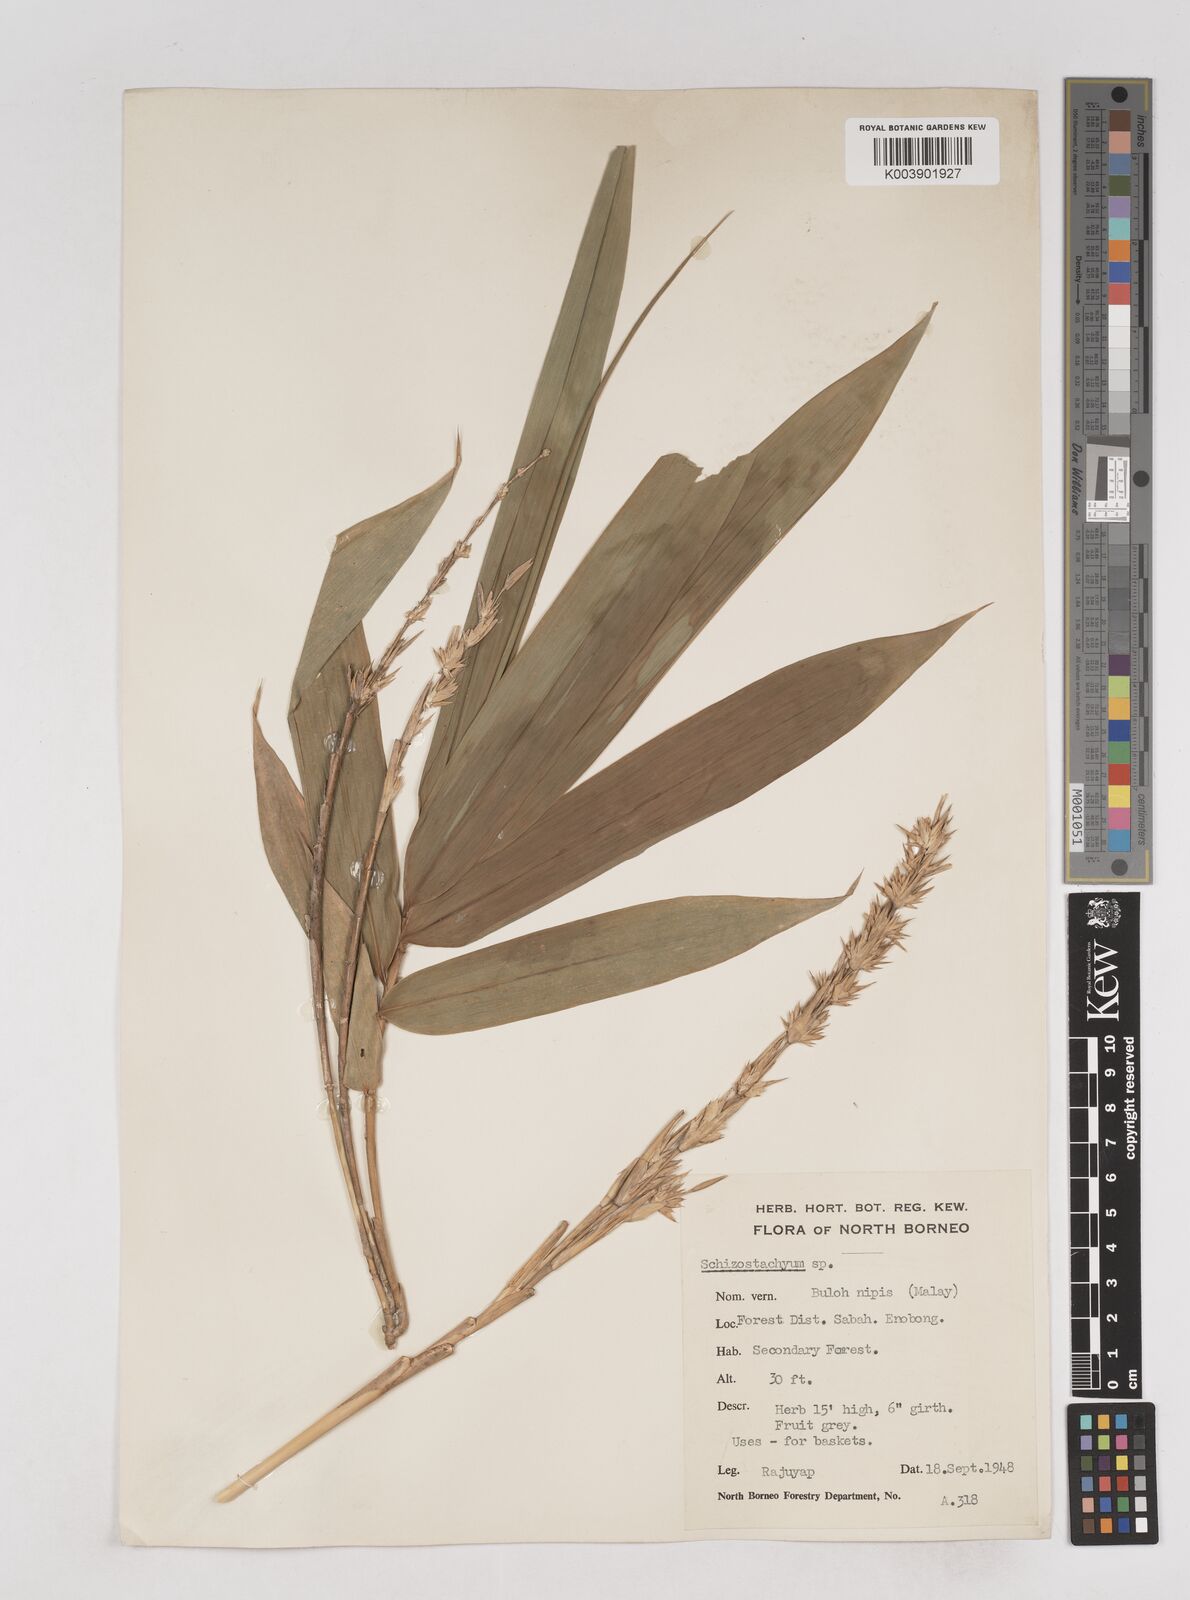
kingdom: Plantae
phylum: Tracheophyta
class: Liliopsida
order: Poales
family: Poaceae
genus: Schizostachyum
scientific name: Schizostachyum brachycladum
